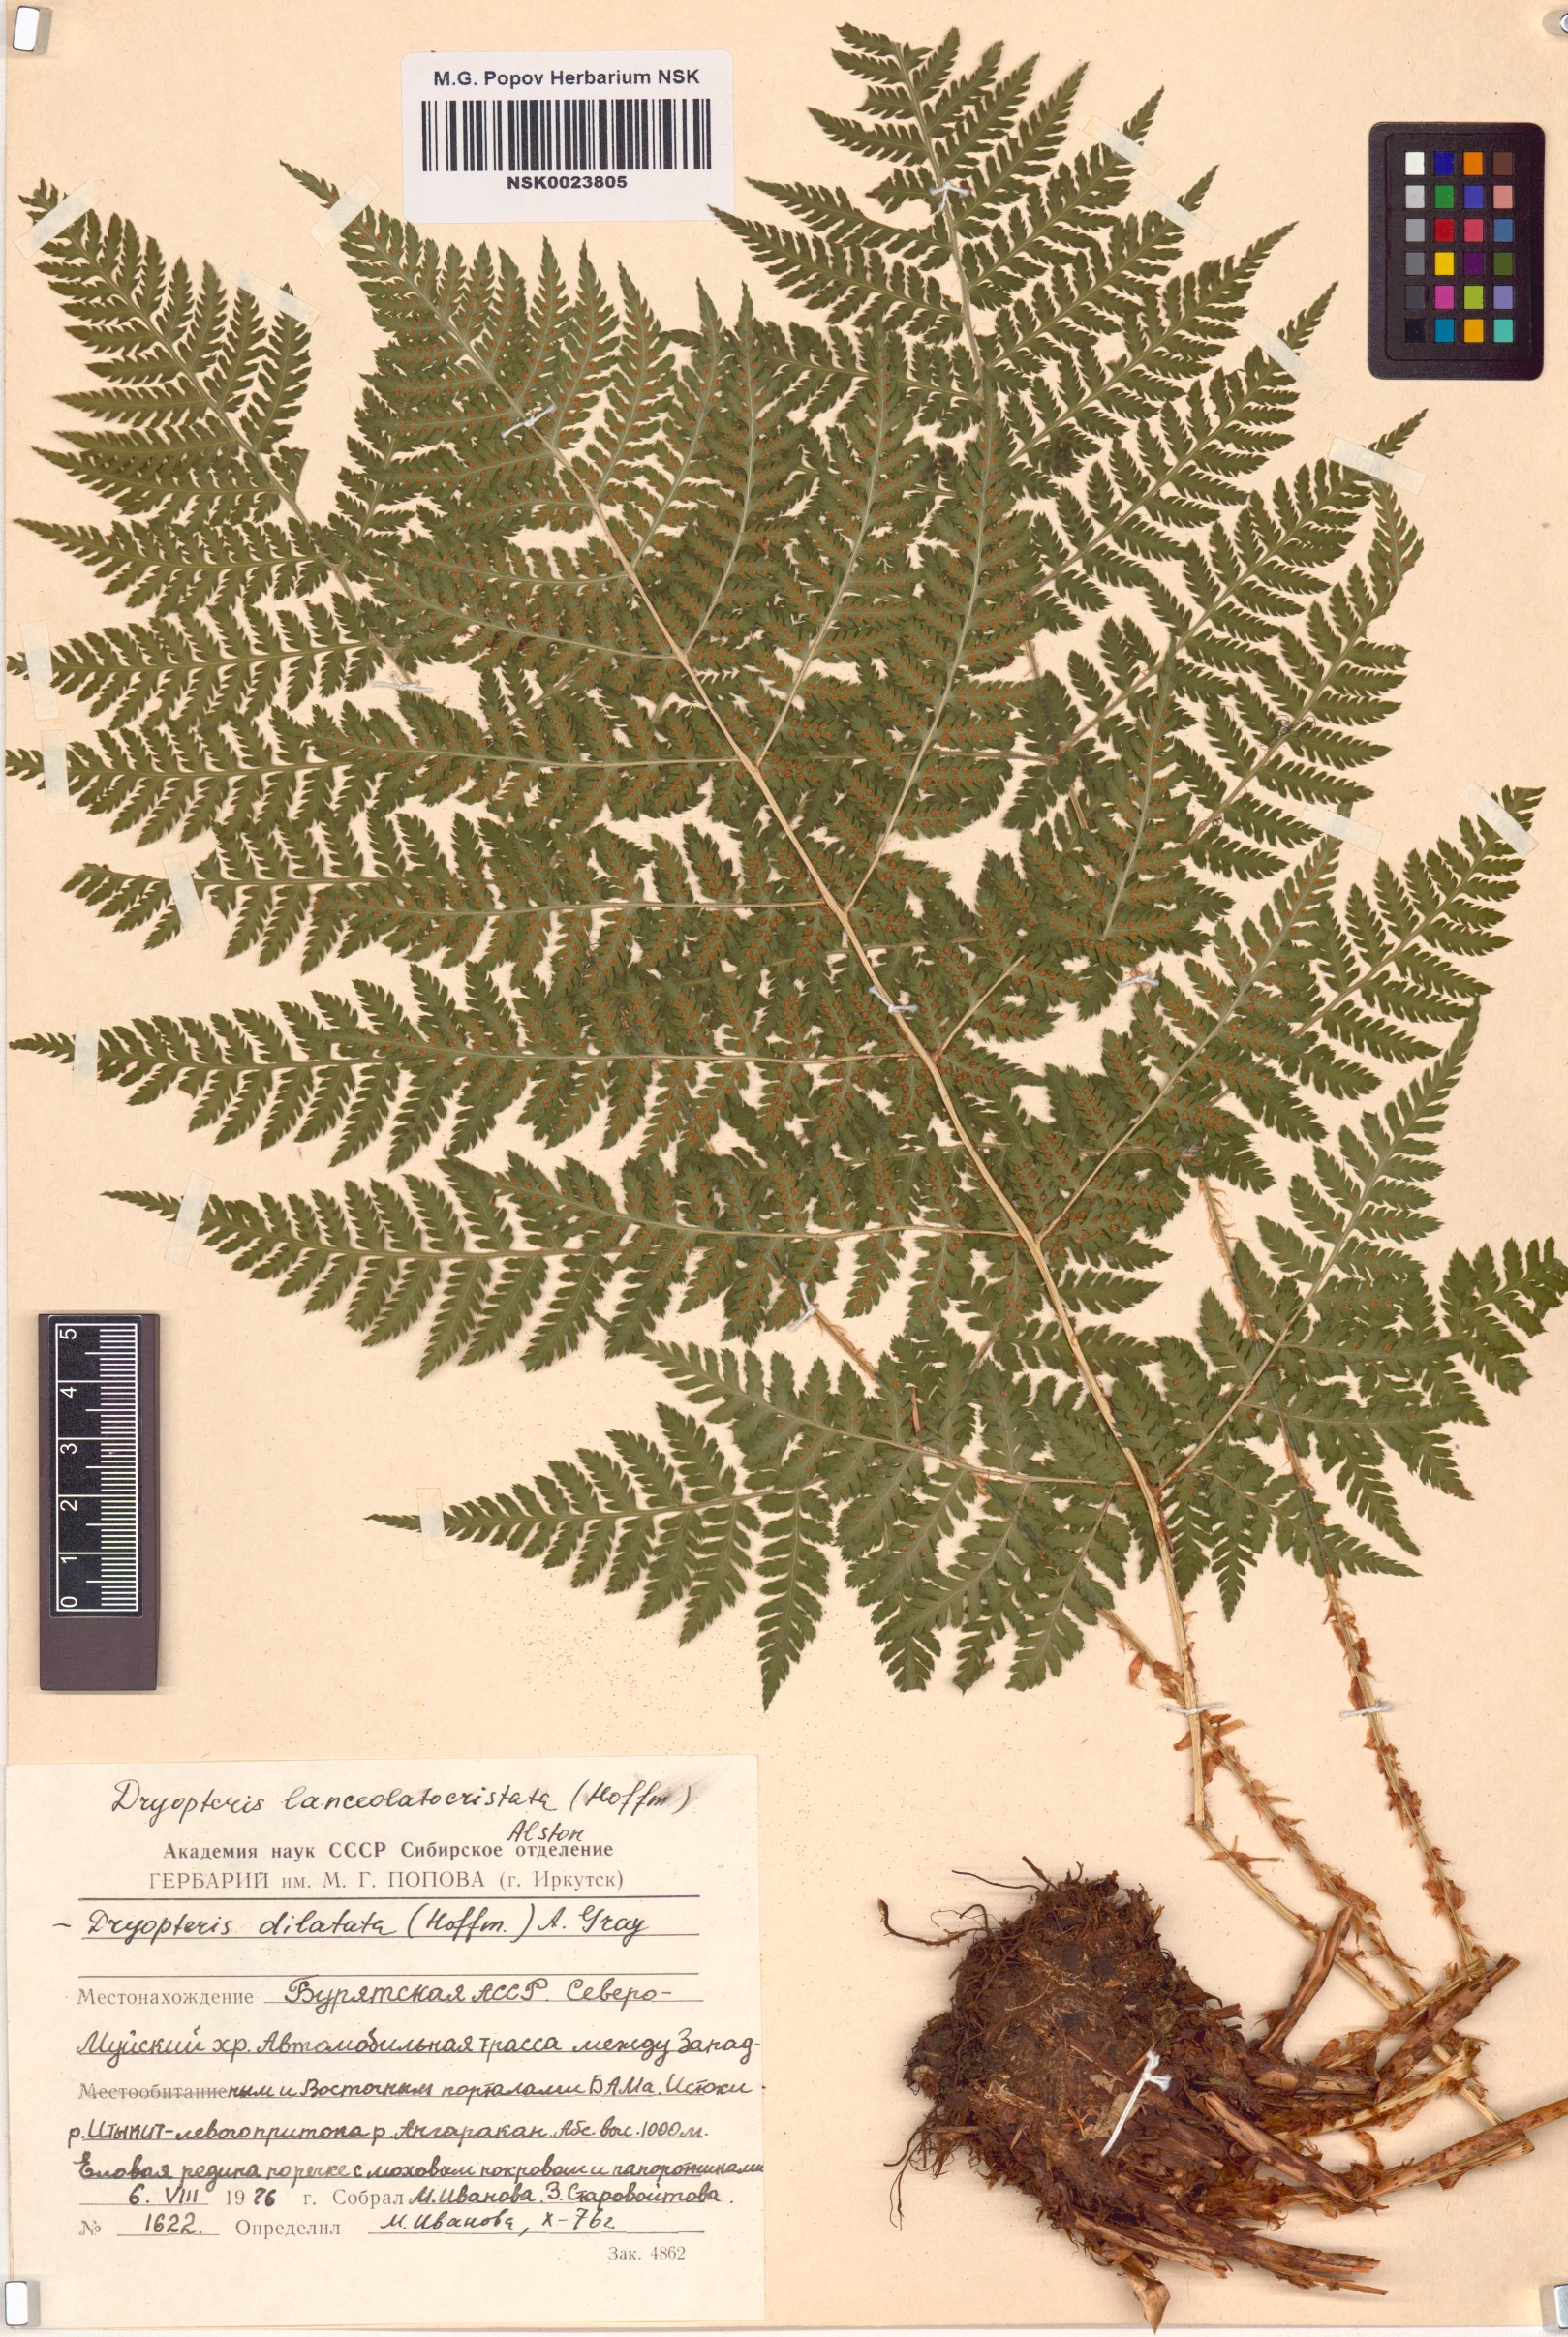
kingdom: Plantae
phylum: Tracheophyta
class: Polypodiopsida
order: Polypodiales
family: Dryopteridaceae
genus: Dryopteris
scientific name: Dryopteris dilatata
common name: Broad buckler-fern
